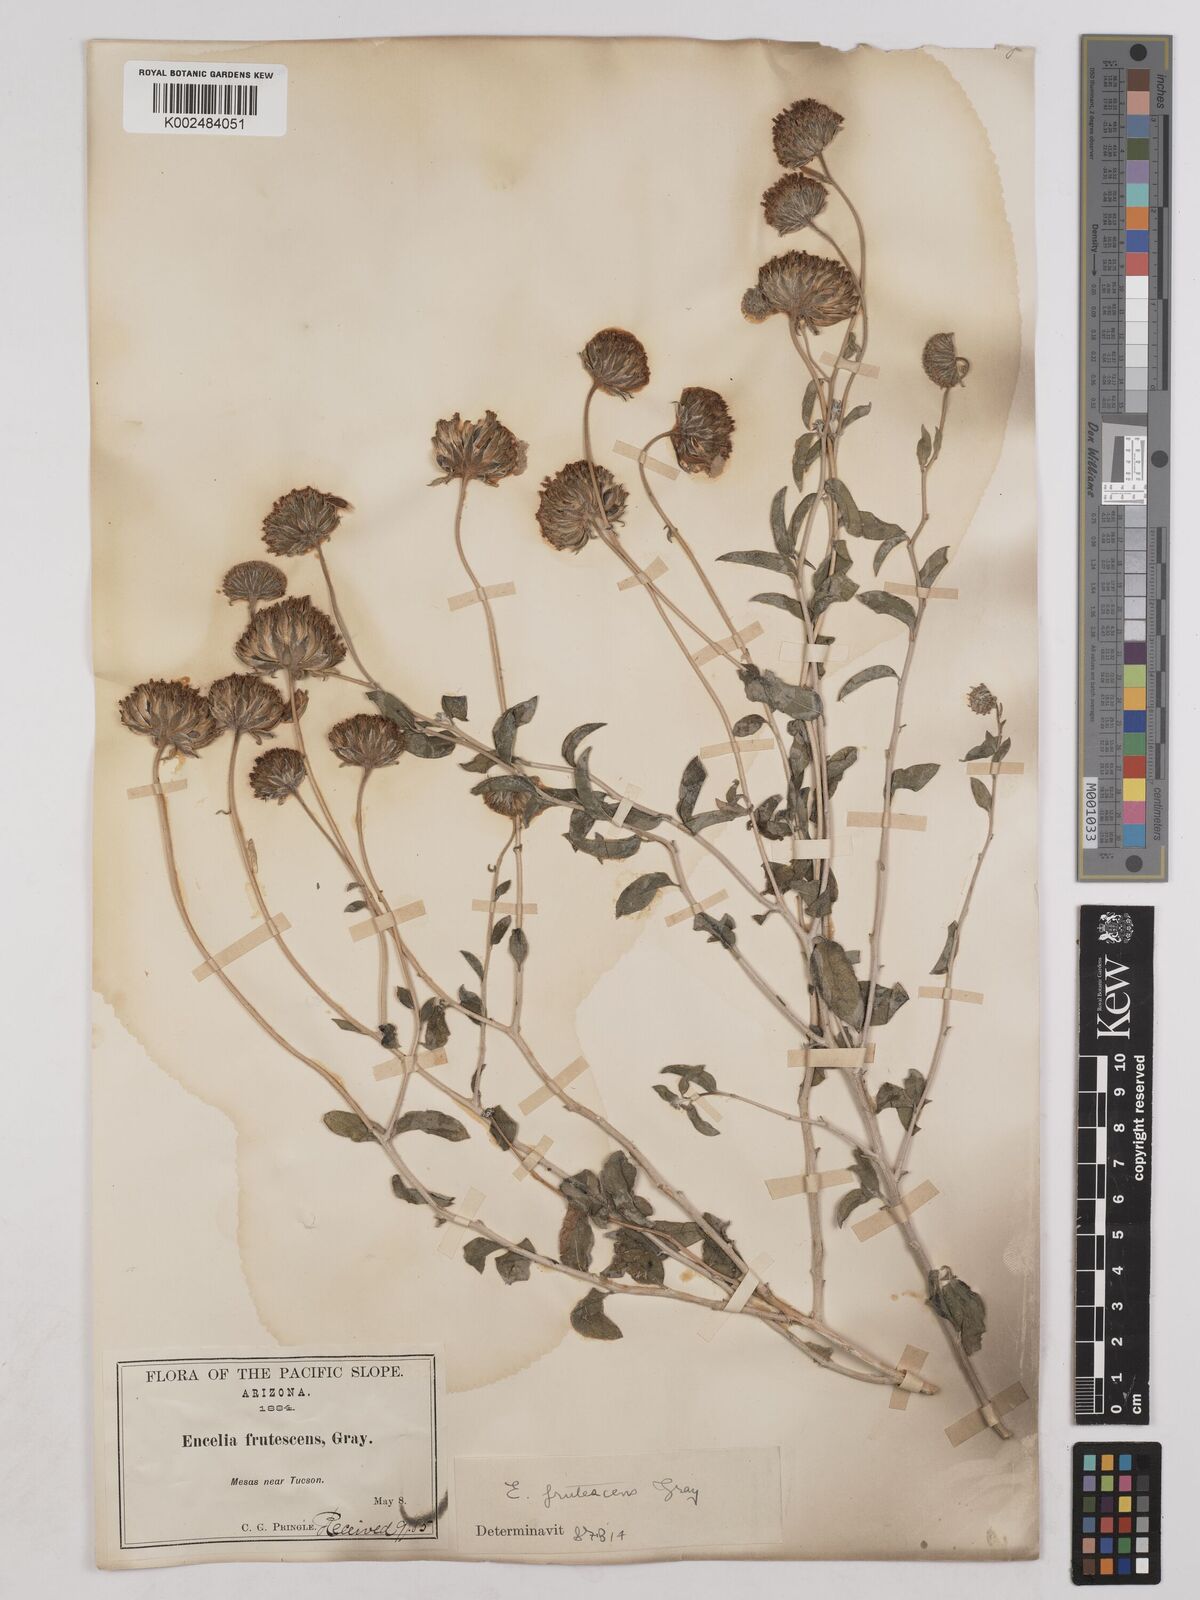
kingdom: Plantae
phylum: Tracheophyta
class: Magnoliopsida
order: Asterales
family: Asteraceae
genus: Encelia
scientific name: Encelia frutescens
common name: Bush encelia
